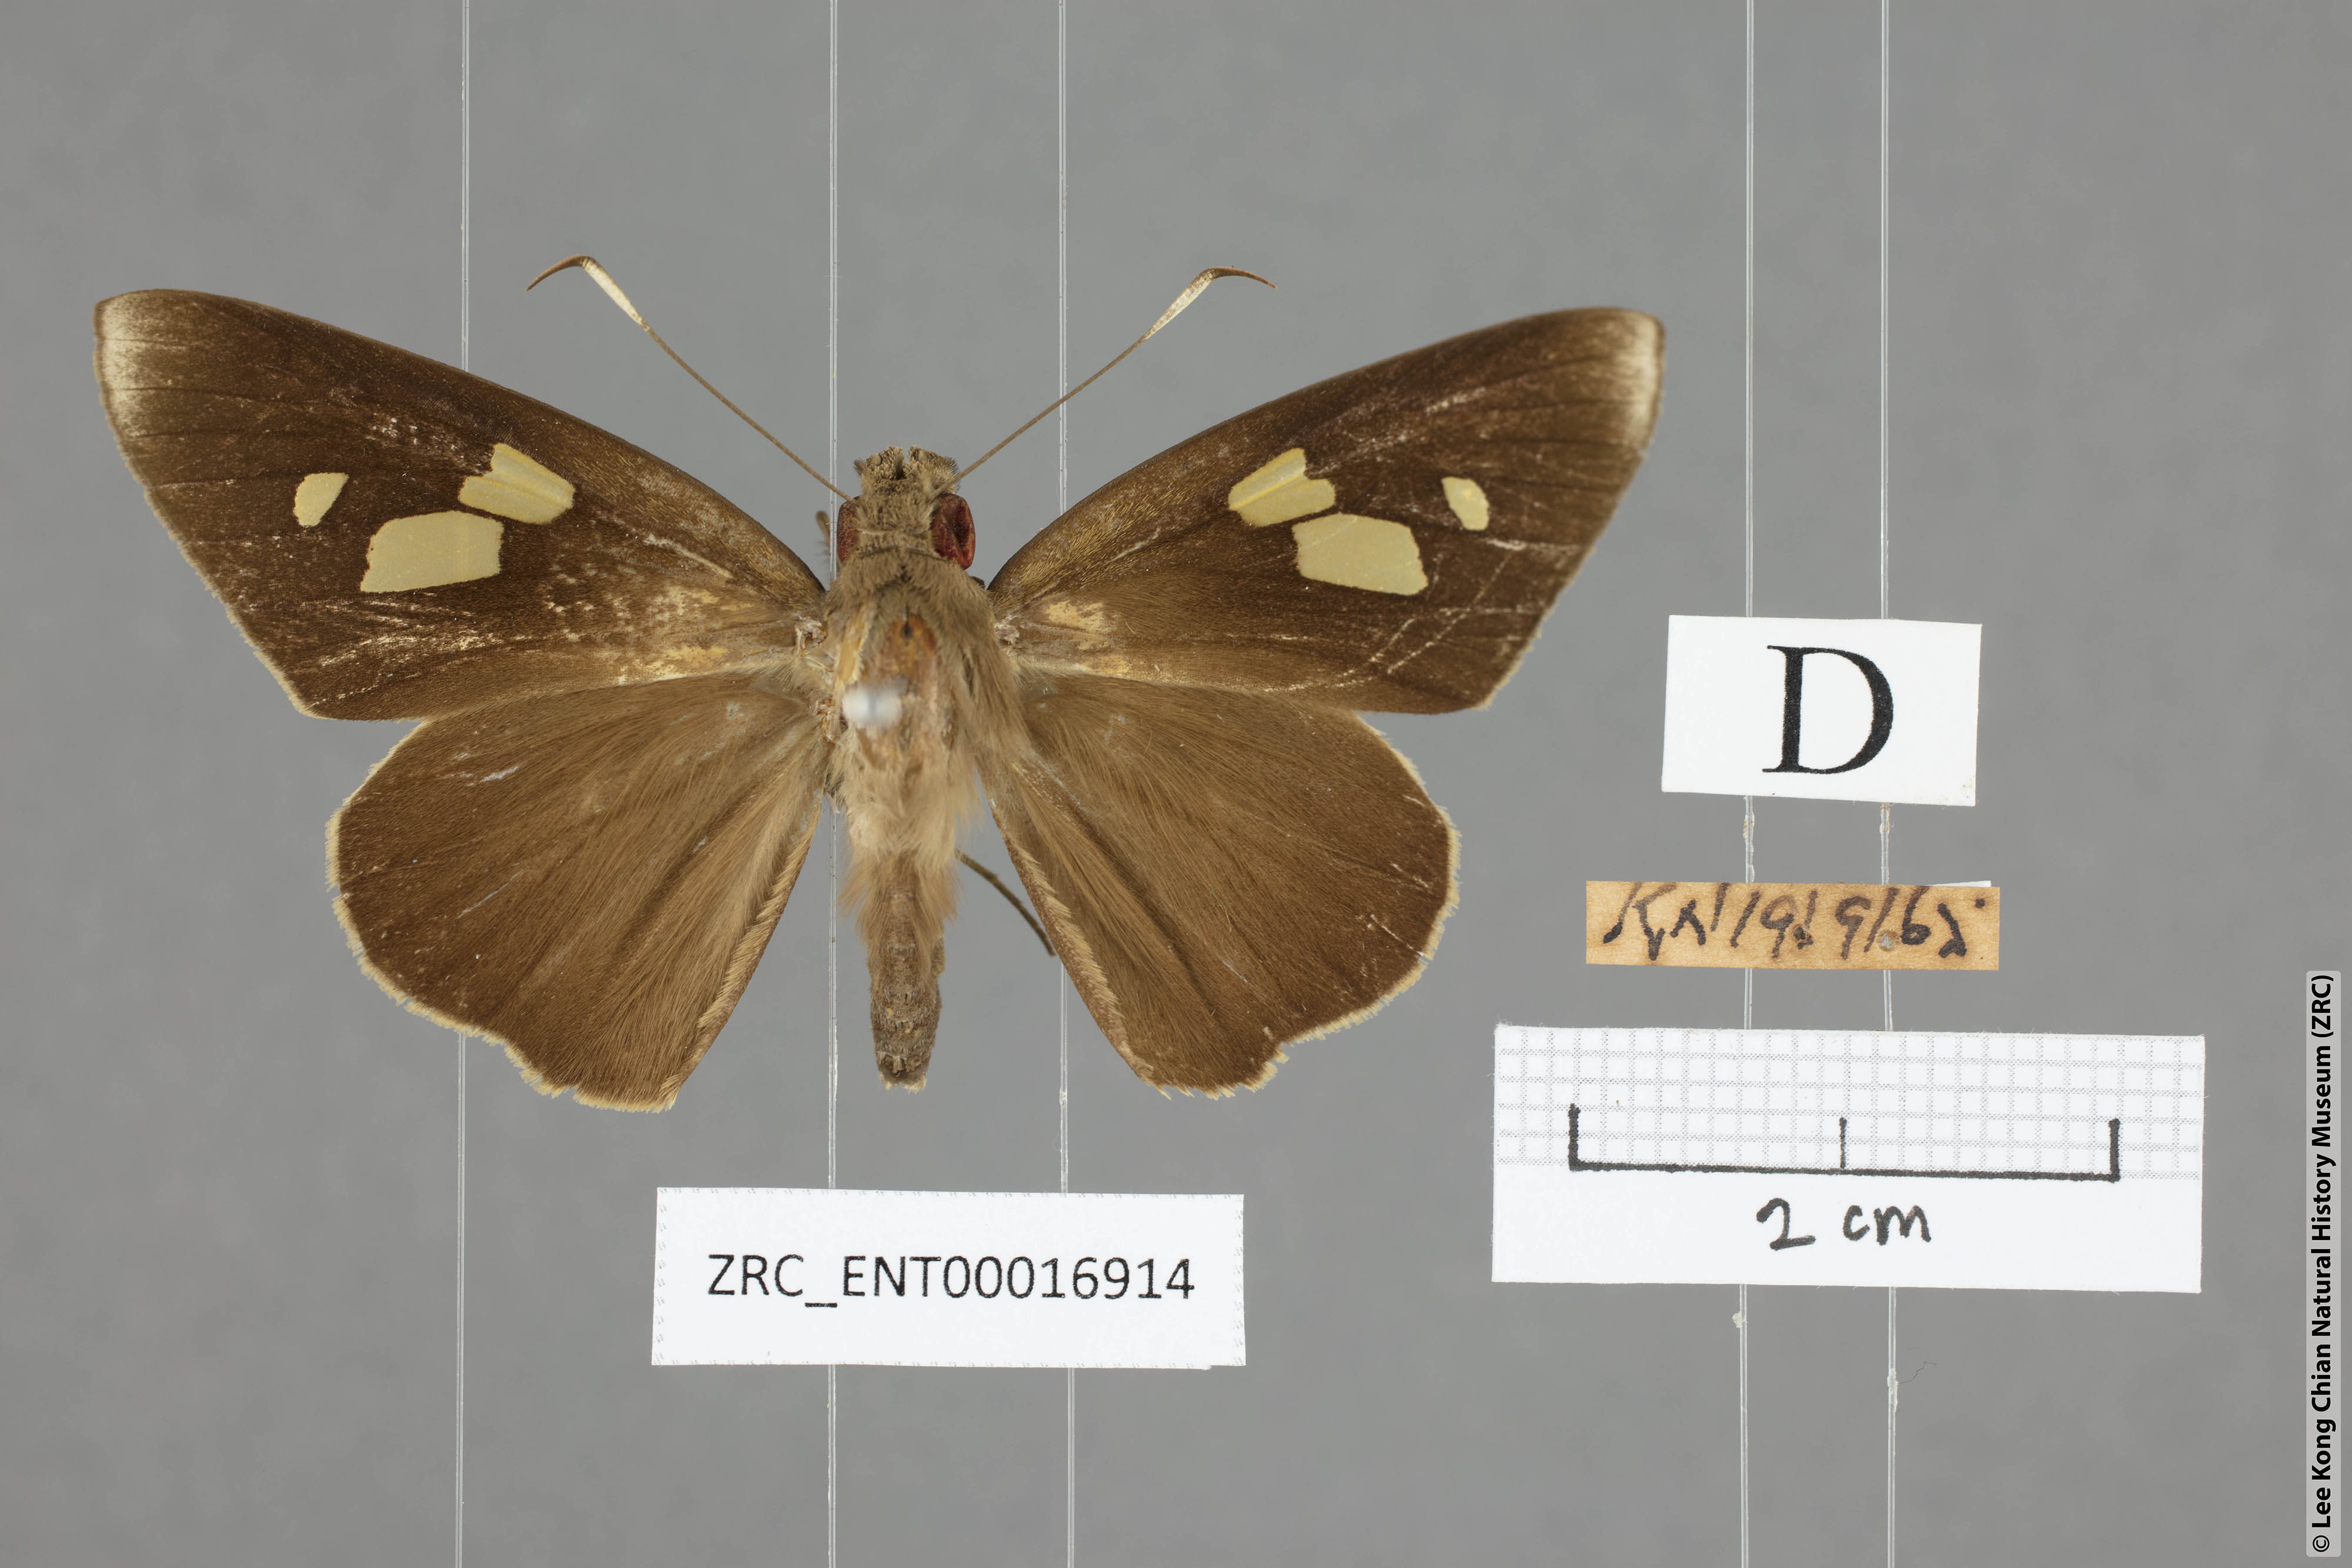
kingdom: Animalia
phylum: Arthropoda
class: Insecta
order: Lepidoptera
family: Hesperiidae
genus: Erionota
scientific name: Erionota
